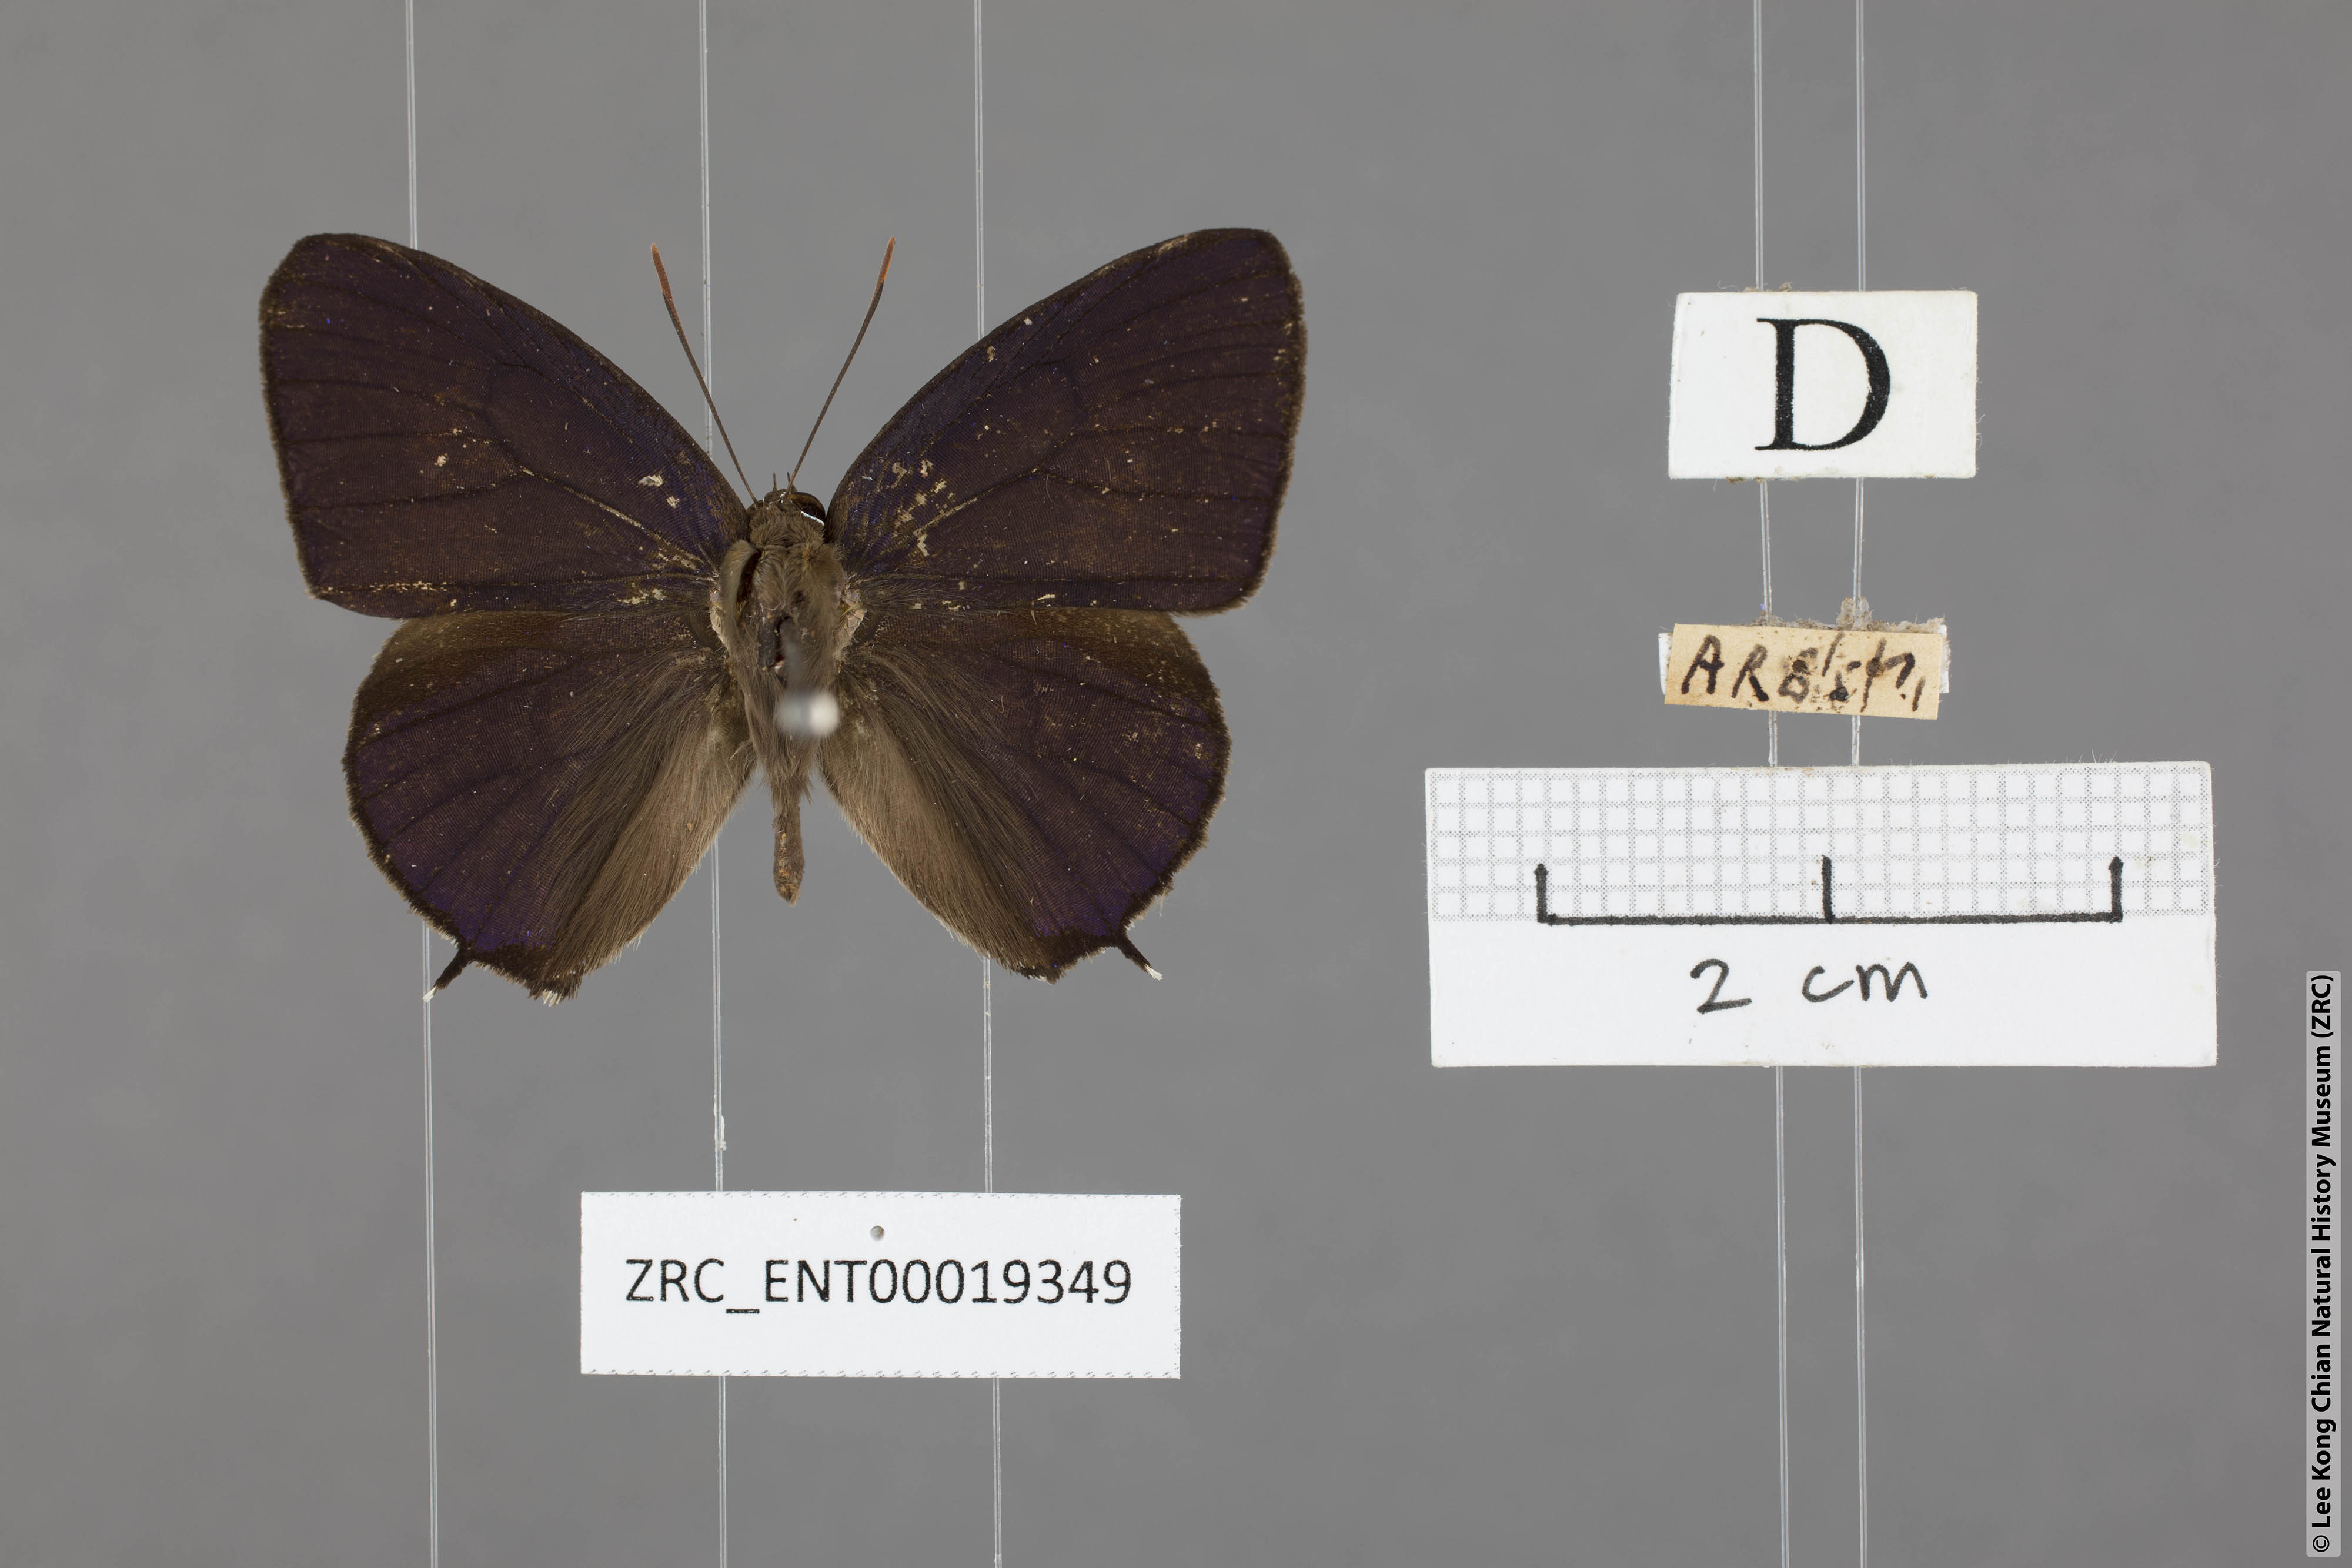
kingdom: Animalia
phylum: Arthropoda
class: Insecta
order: Lepidoptera
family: Lycaenidae
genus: Arhopala
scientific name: Arhopala corinda
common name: Ultramarine oakblue
